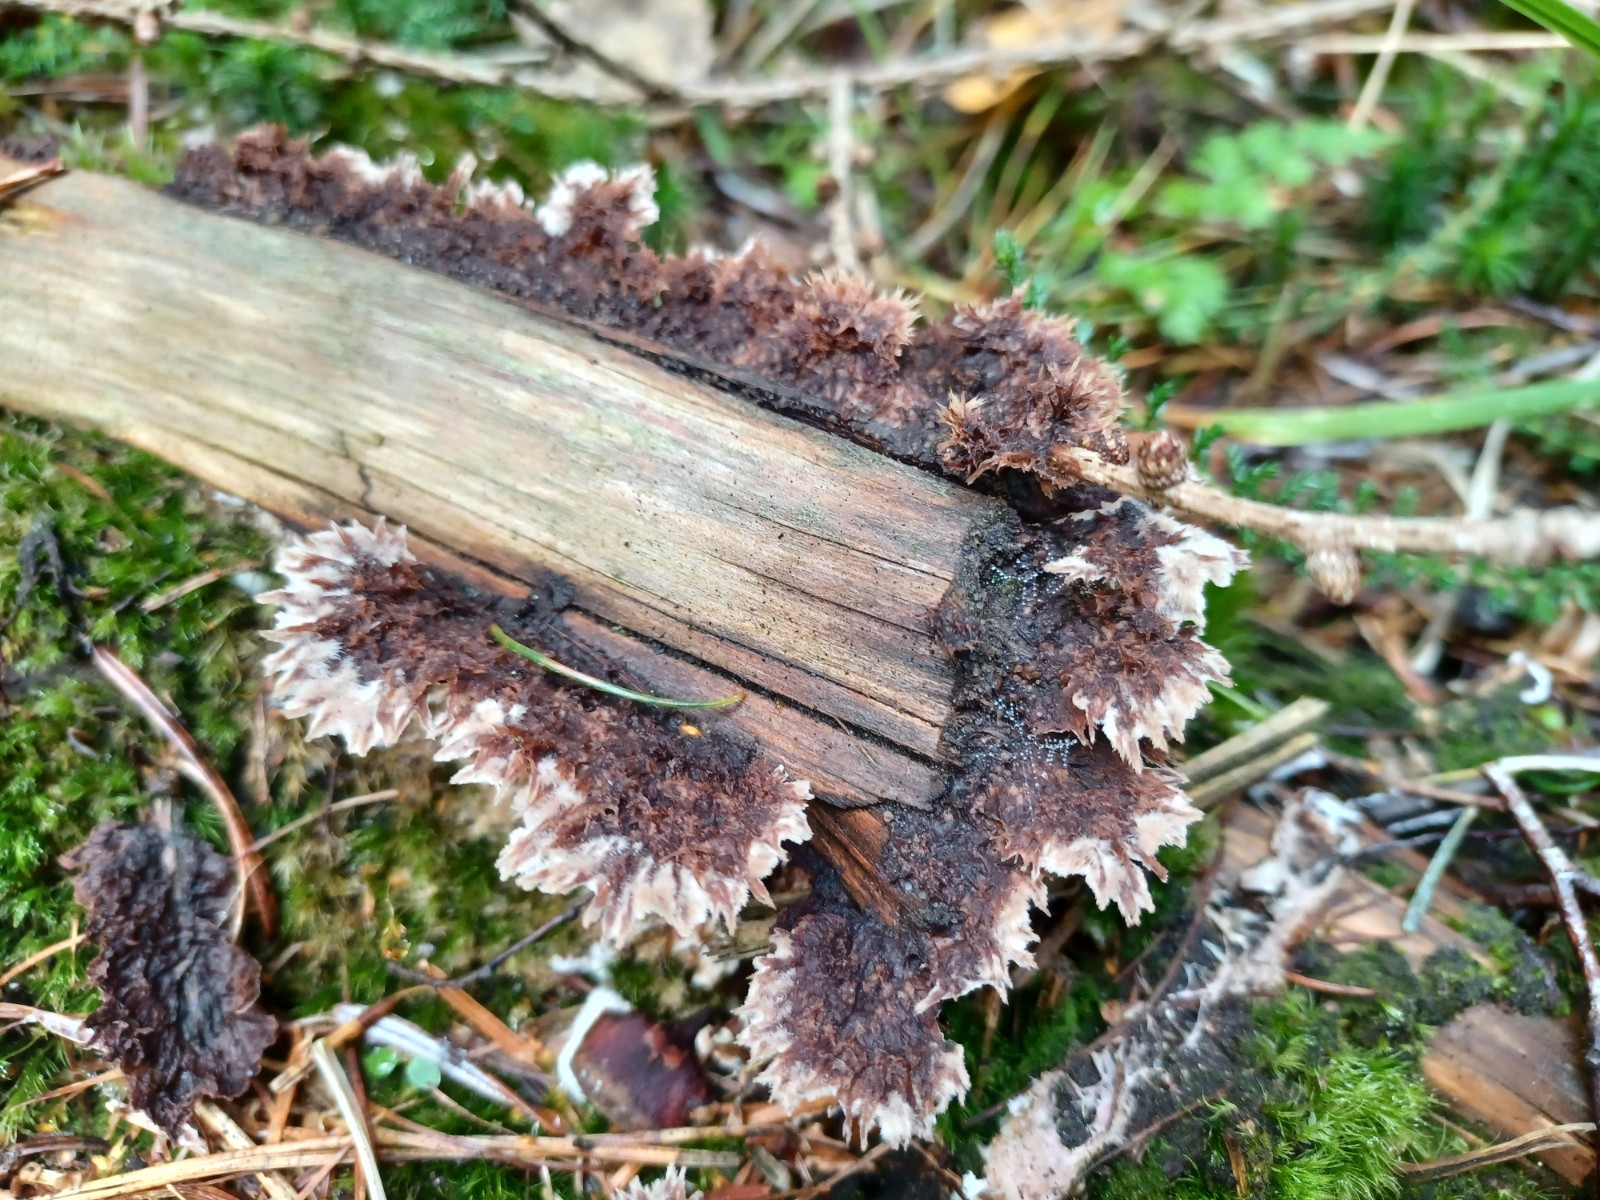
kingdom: Fungi
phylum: Basidiomycota
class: Agaricomycetes
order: Thelephorales
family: Thelephoraceae
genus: Thelephora
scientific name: Thelephora terrestris
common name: fliget frynsesvamp
